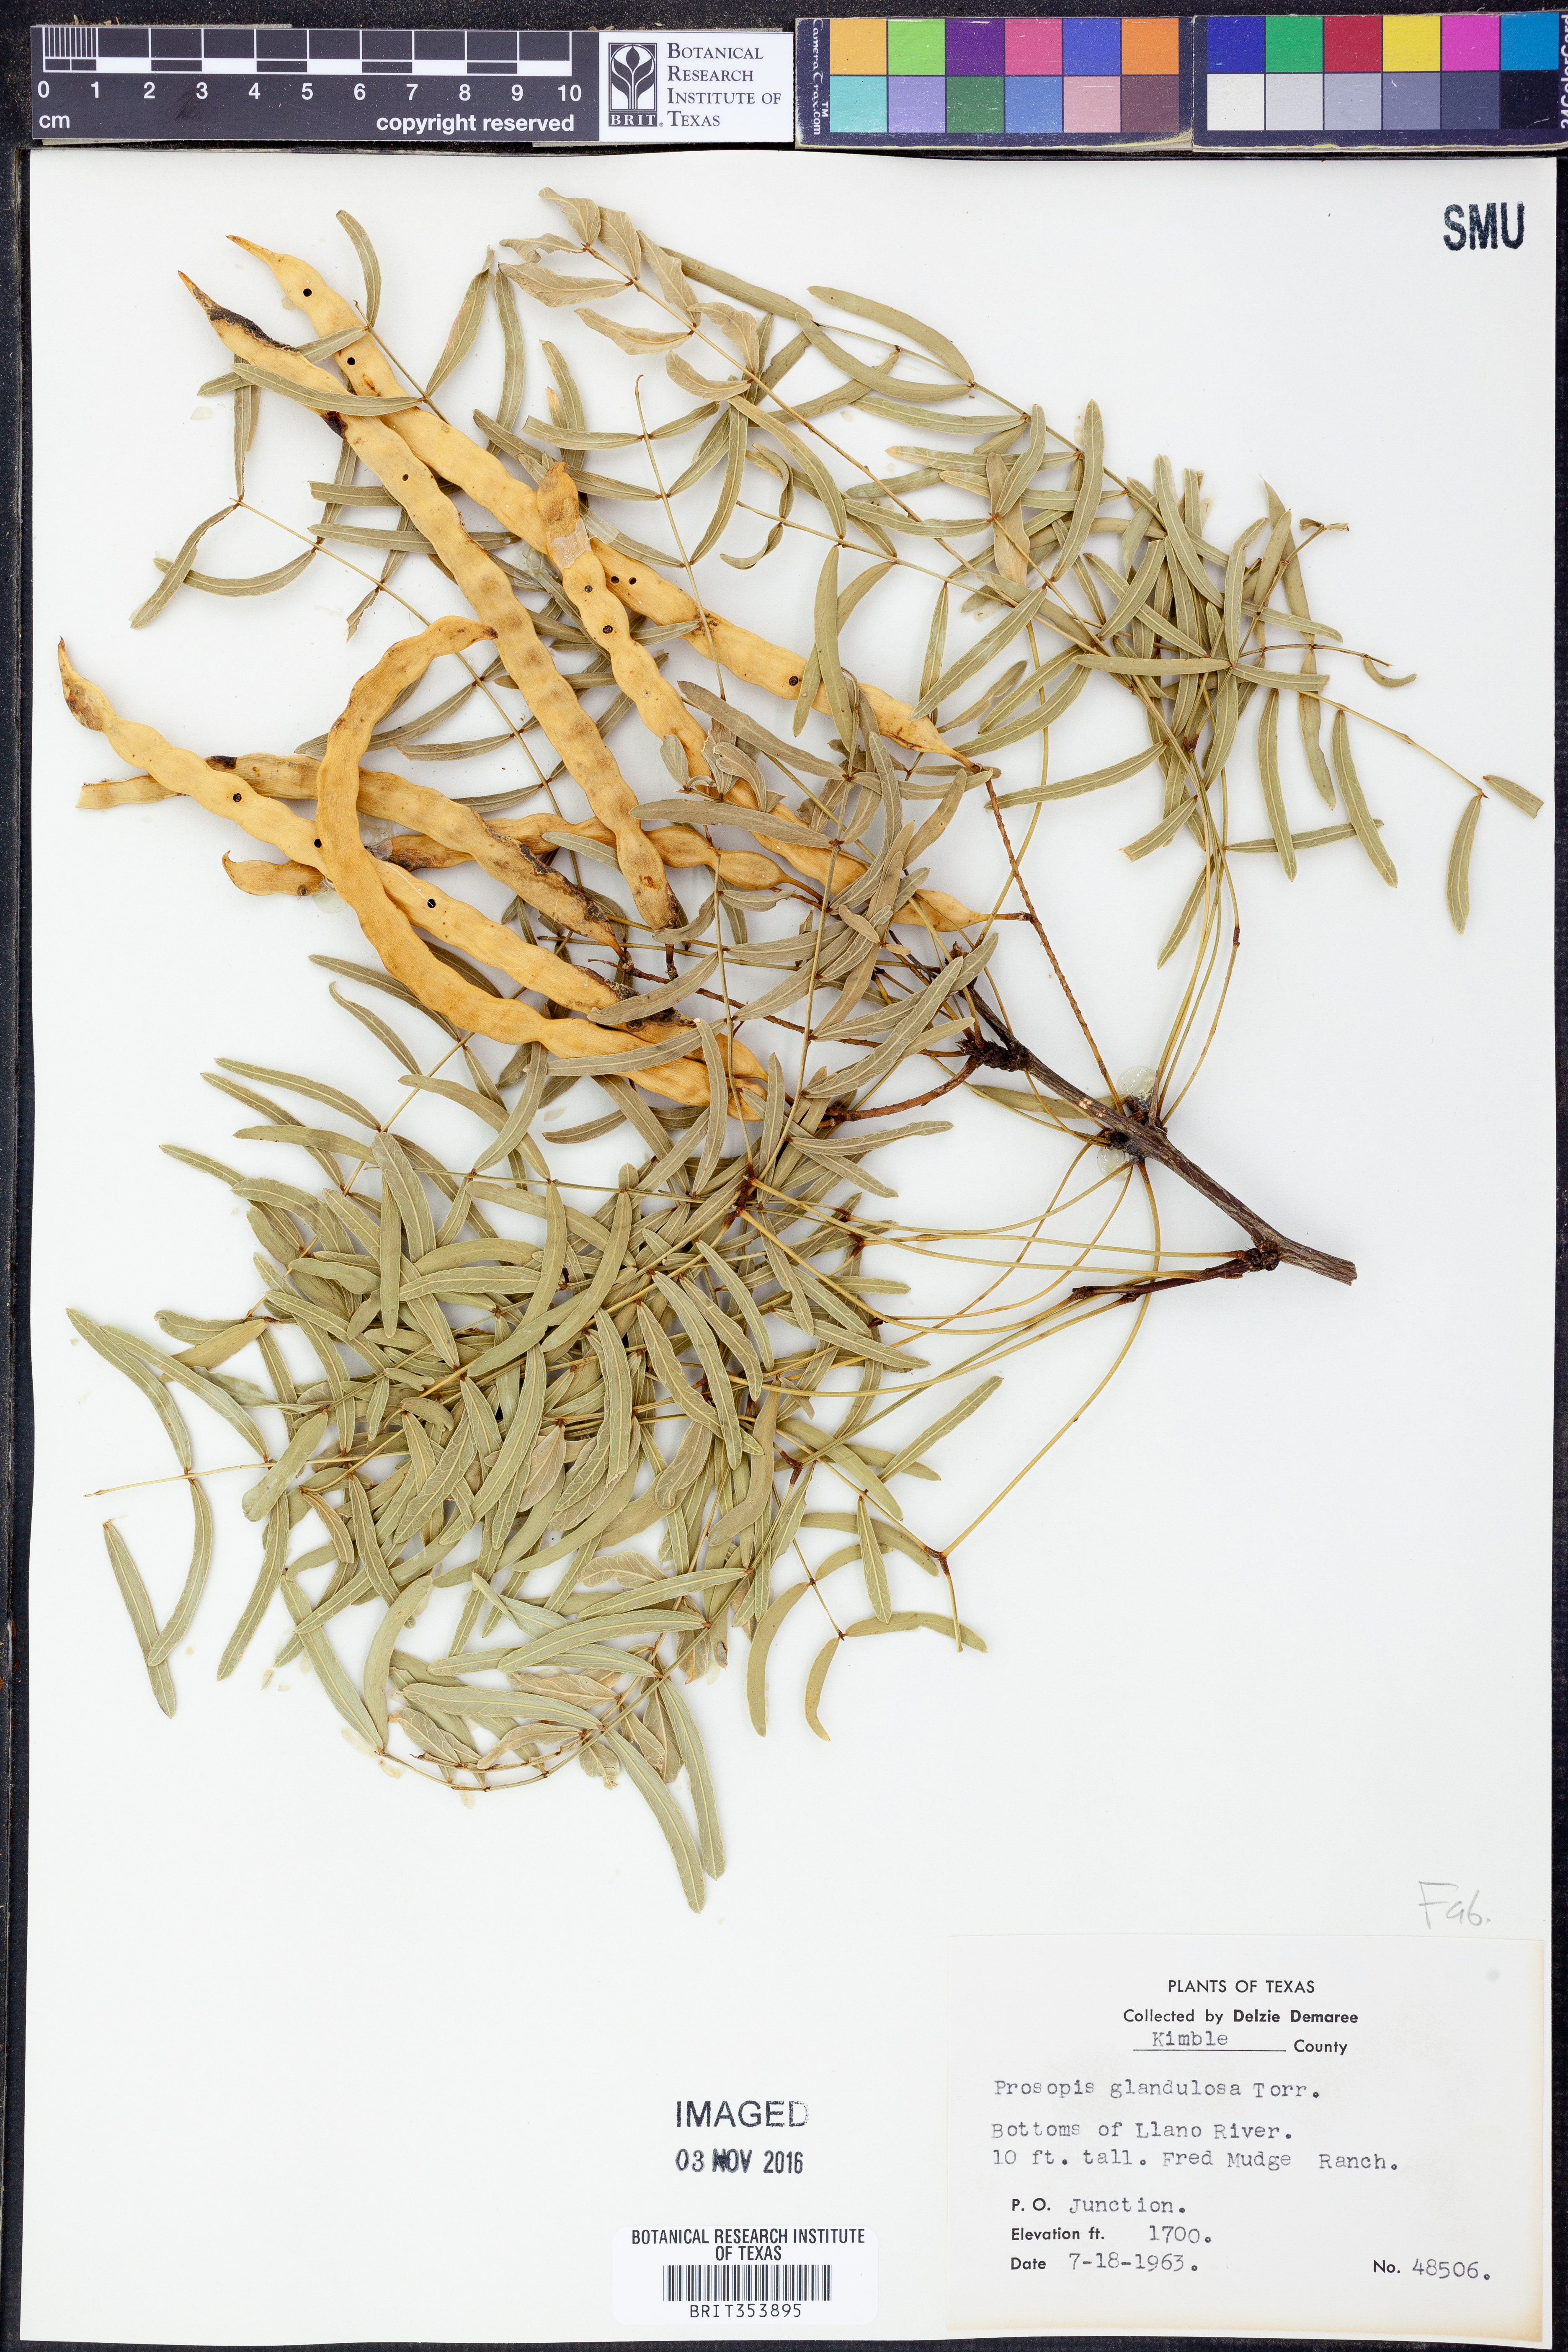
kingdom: Plantae
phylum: Tracheophyta
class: Magnoliopsida
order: Fabales
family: Fabaceae
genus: Prosopis
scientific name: Prosopis glandulosa
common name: Honey mesquite
